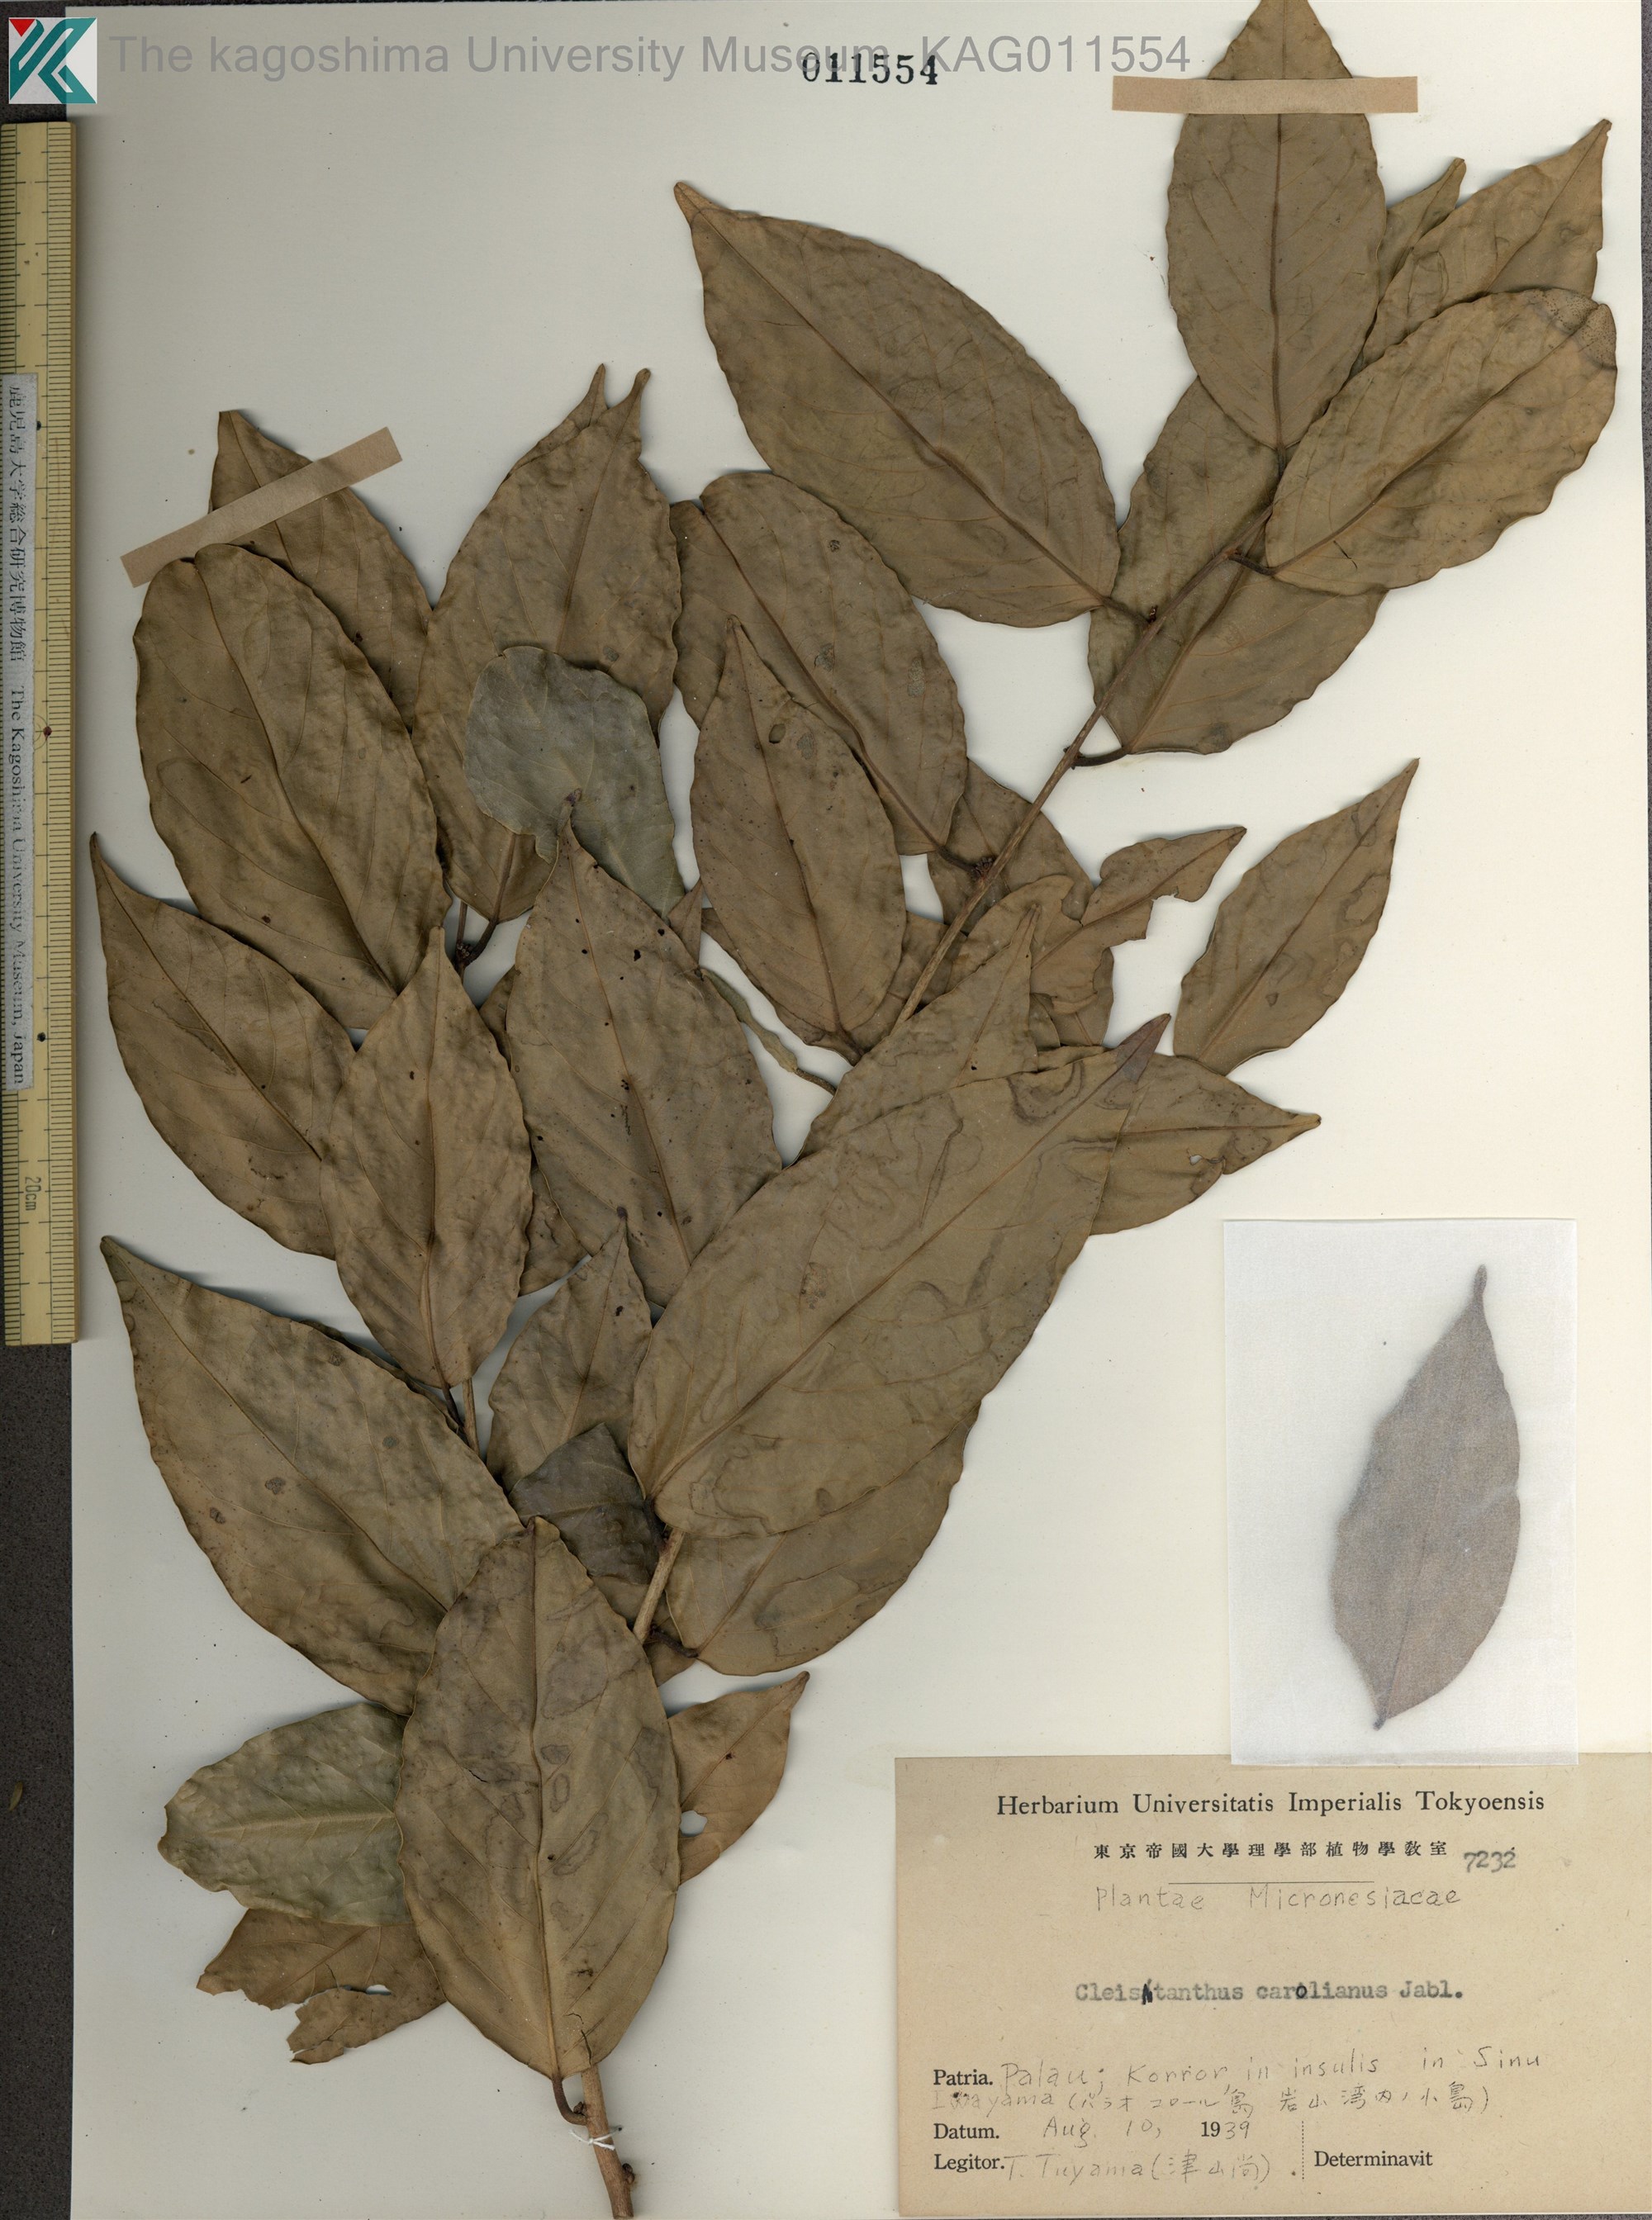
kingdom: Plantae
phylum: Tracheophyta
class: Magnoliopsida
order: Malpighiales
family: Phyllanthaceae
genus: Cleistanthus
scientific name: Cleistanthus
